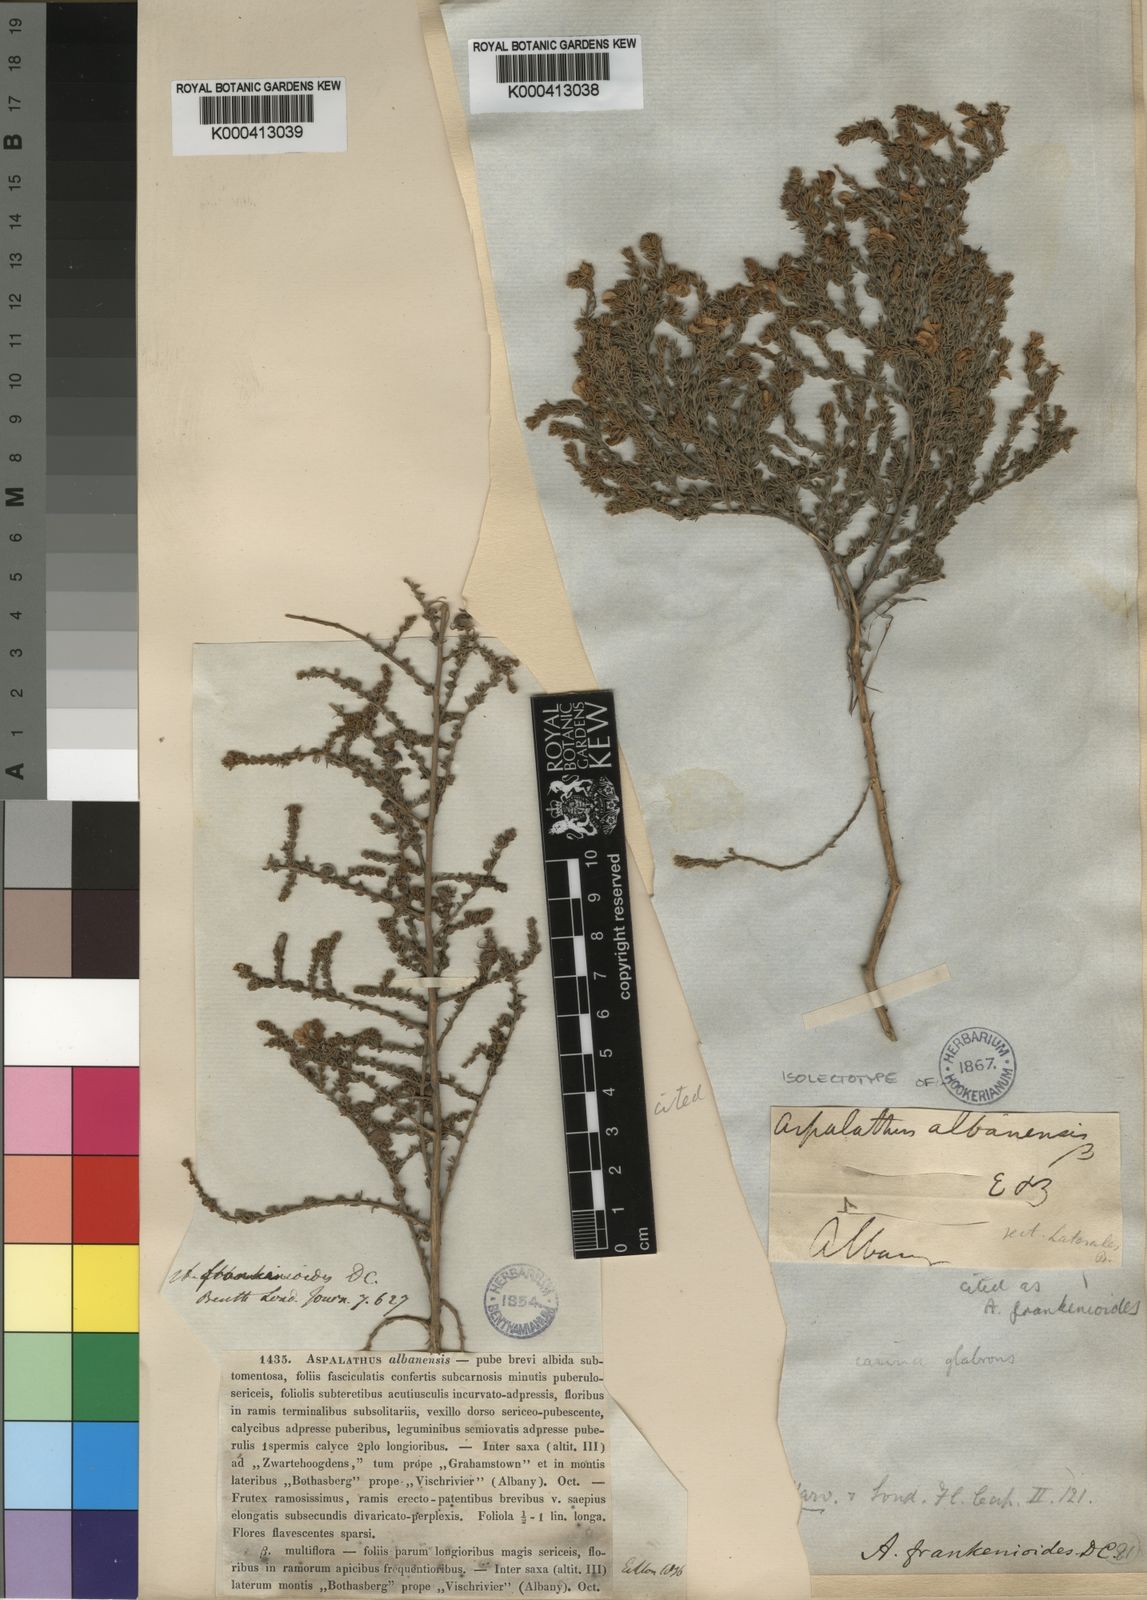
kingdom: Plantae
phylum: Tracheophyta
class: Magnoliopsida
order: Fabales
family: Fabaceae
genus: Aspalathus
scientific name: Aspalathus frankenioides
